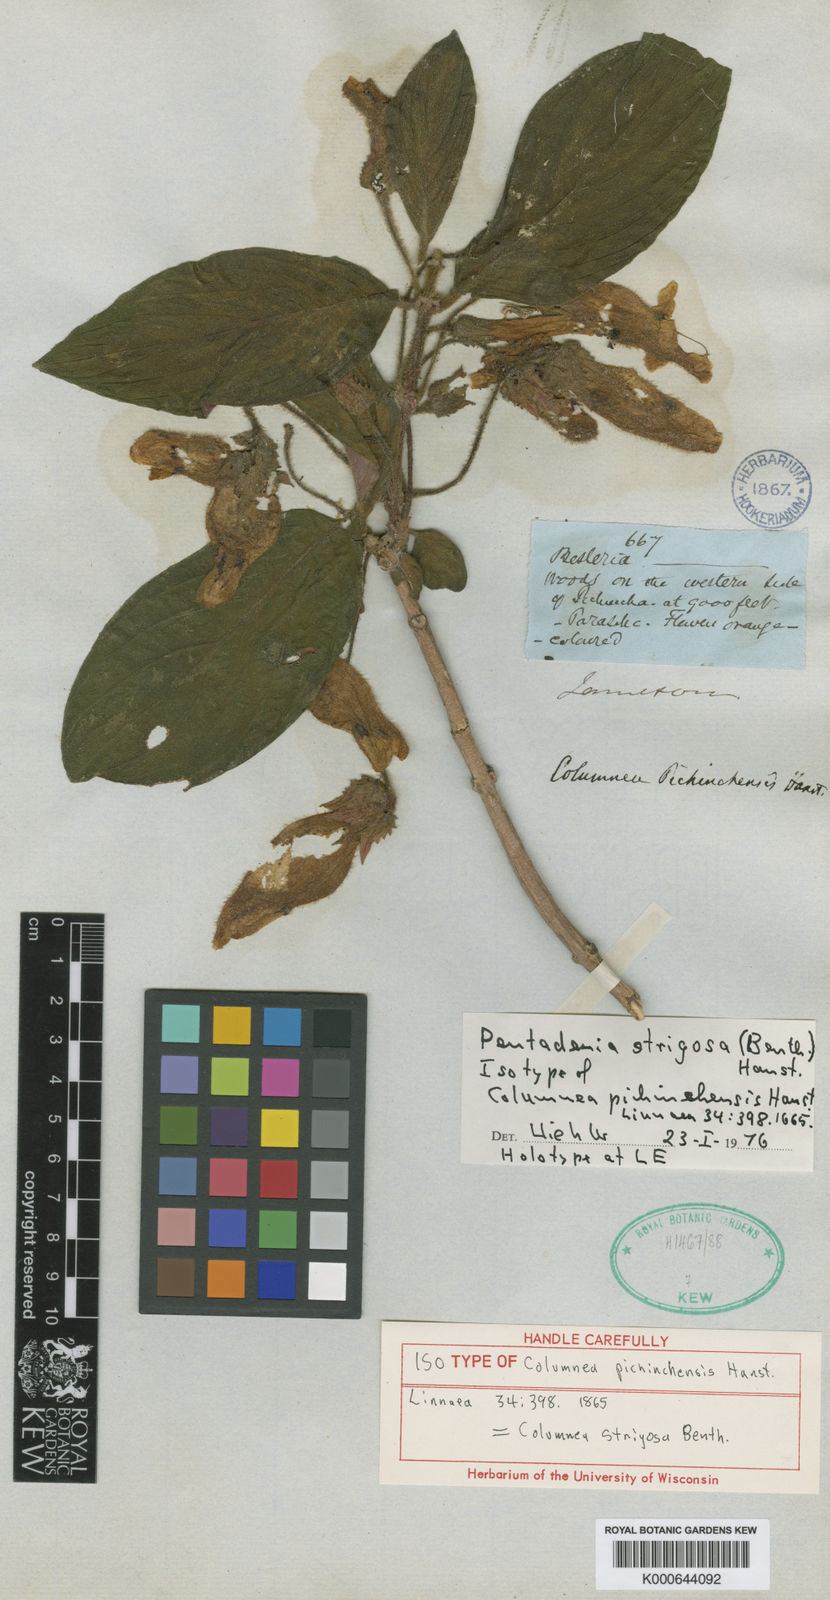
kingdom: Plantae
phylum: Tracheophyta
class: Magnoliopsida
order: Lamiales
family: Gesneriaceae
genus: Columnea
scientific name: Columnea strigosa
